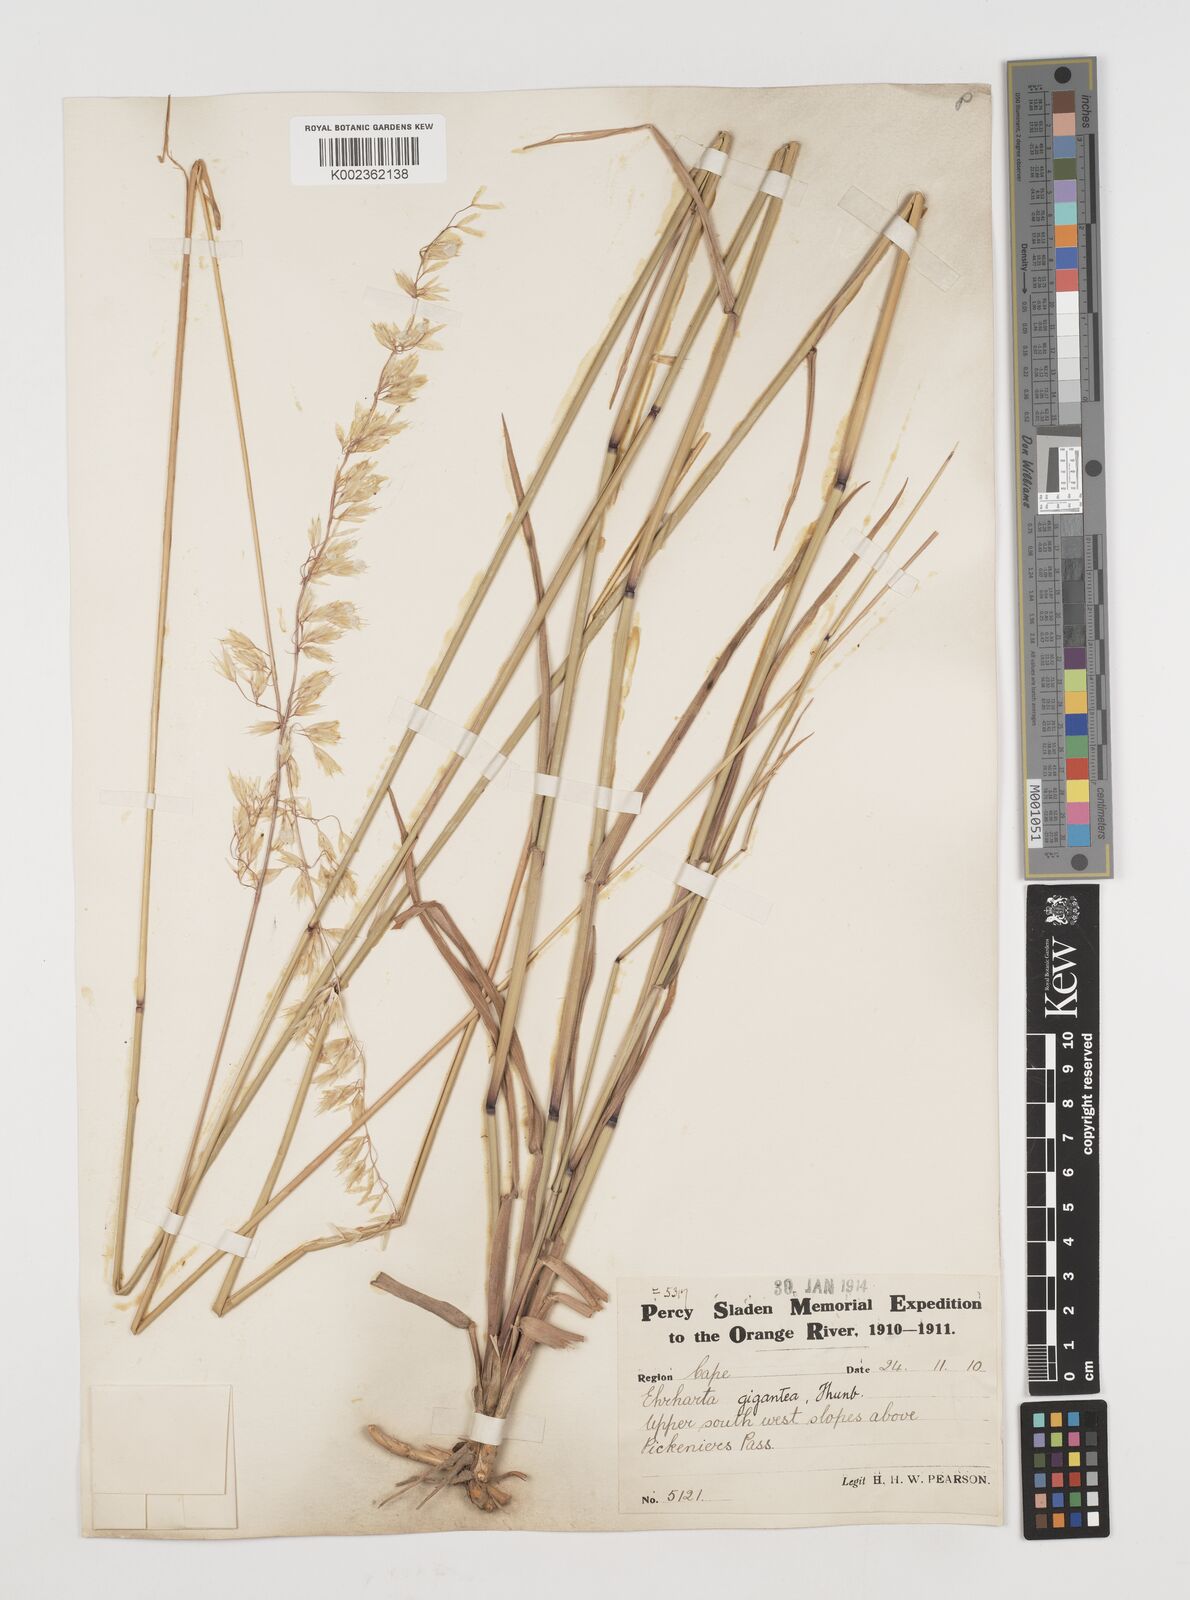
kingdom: Plantae
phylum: Tracheophyta
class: Liliopsida
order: Poales
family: Poaceae
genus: Ehrharta
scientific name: Ehrharta thunbergii
